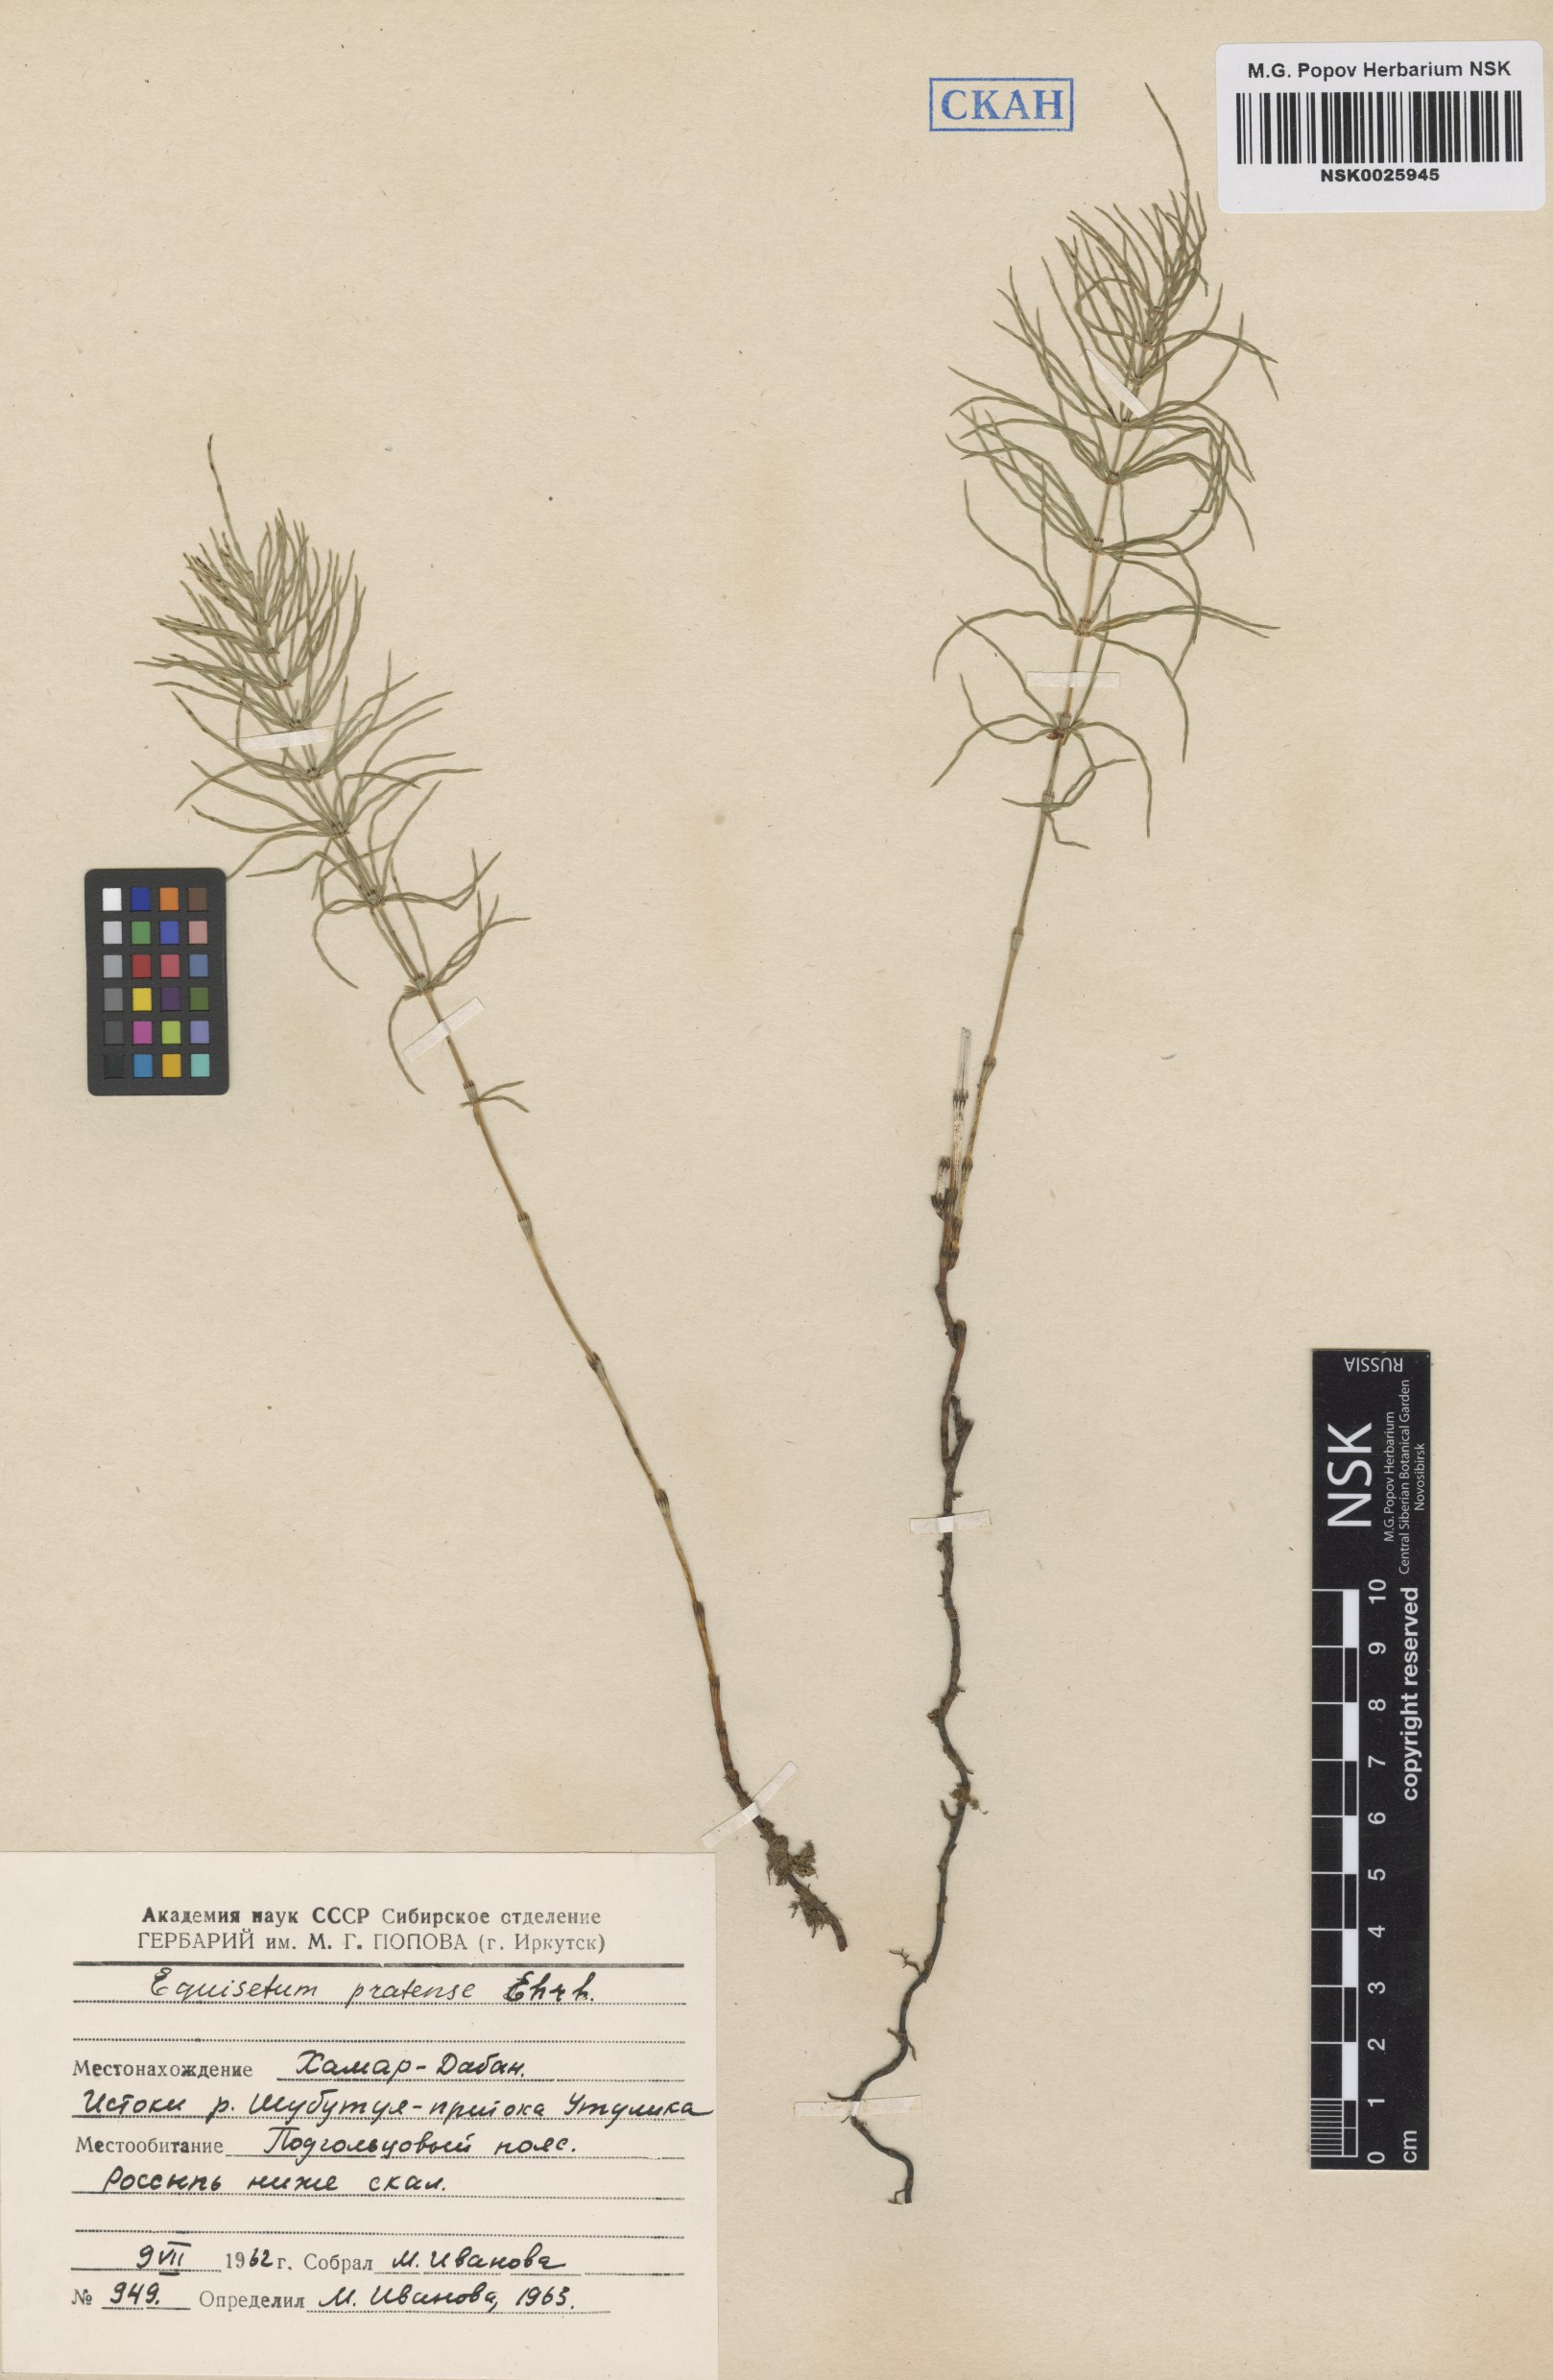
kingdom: Plantae
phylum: Tracheophyta
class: Polypodiopsida
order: Equisetales
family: Equisetaceae
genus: Equisetum
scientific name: Equisetum pratense
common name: Meadow horsetail
